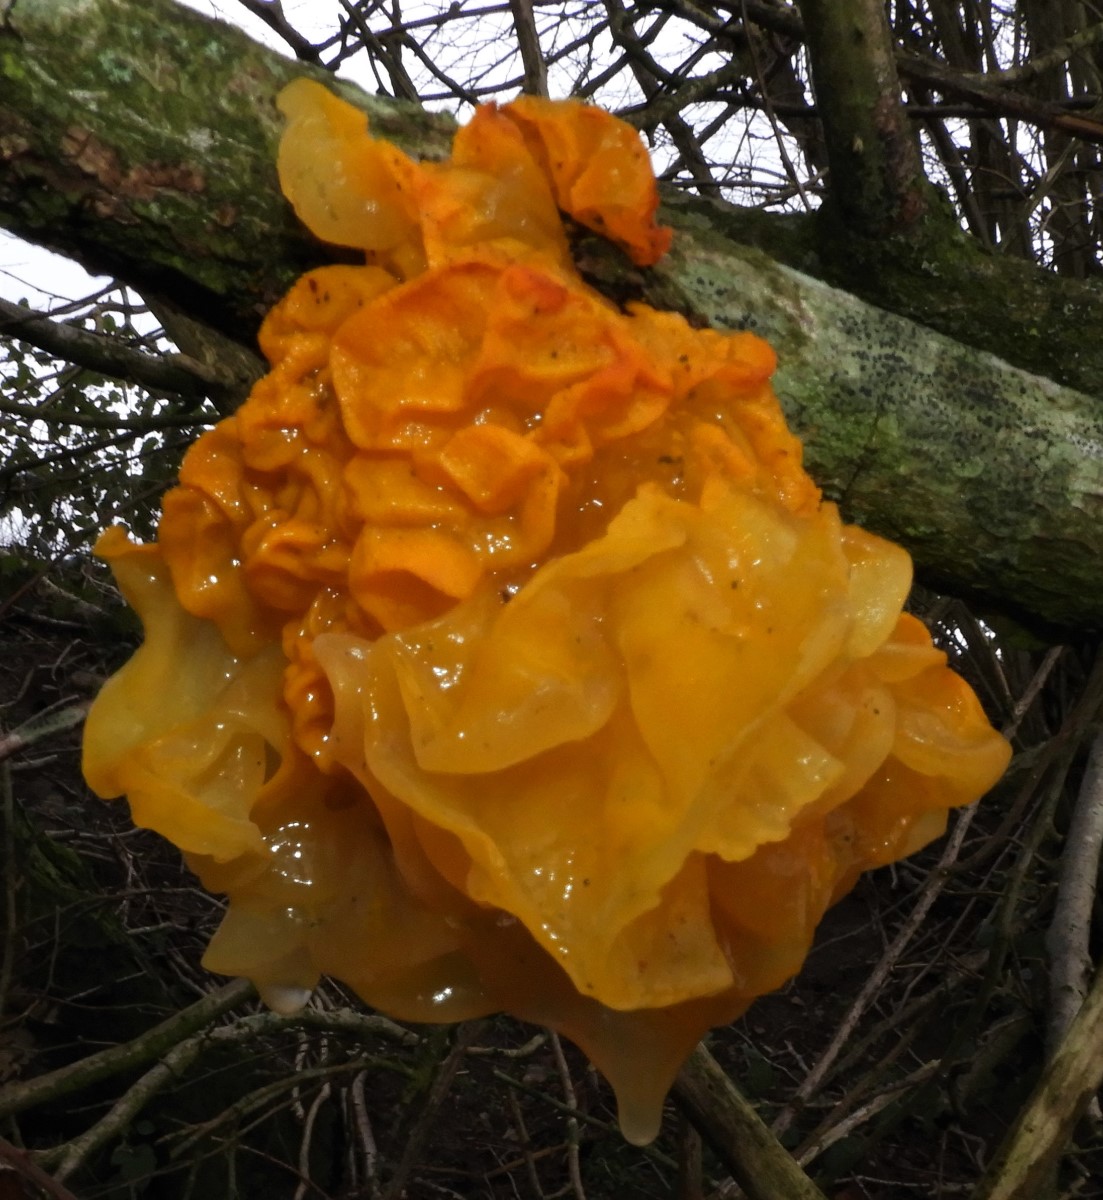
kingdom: Fungi
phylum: Basidiomycota
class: Tremellomycetes
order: Tremellales
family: Tremellaceae
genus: Tremella
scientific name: Tremella mesenterica
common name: gul bævresvamp
